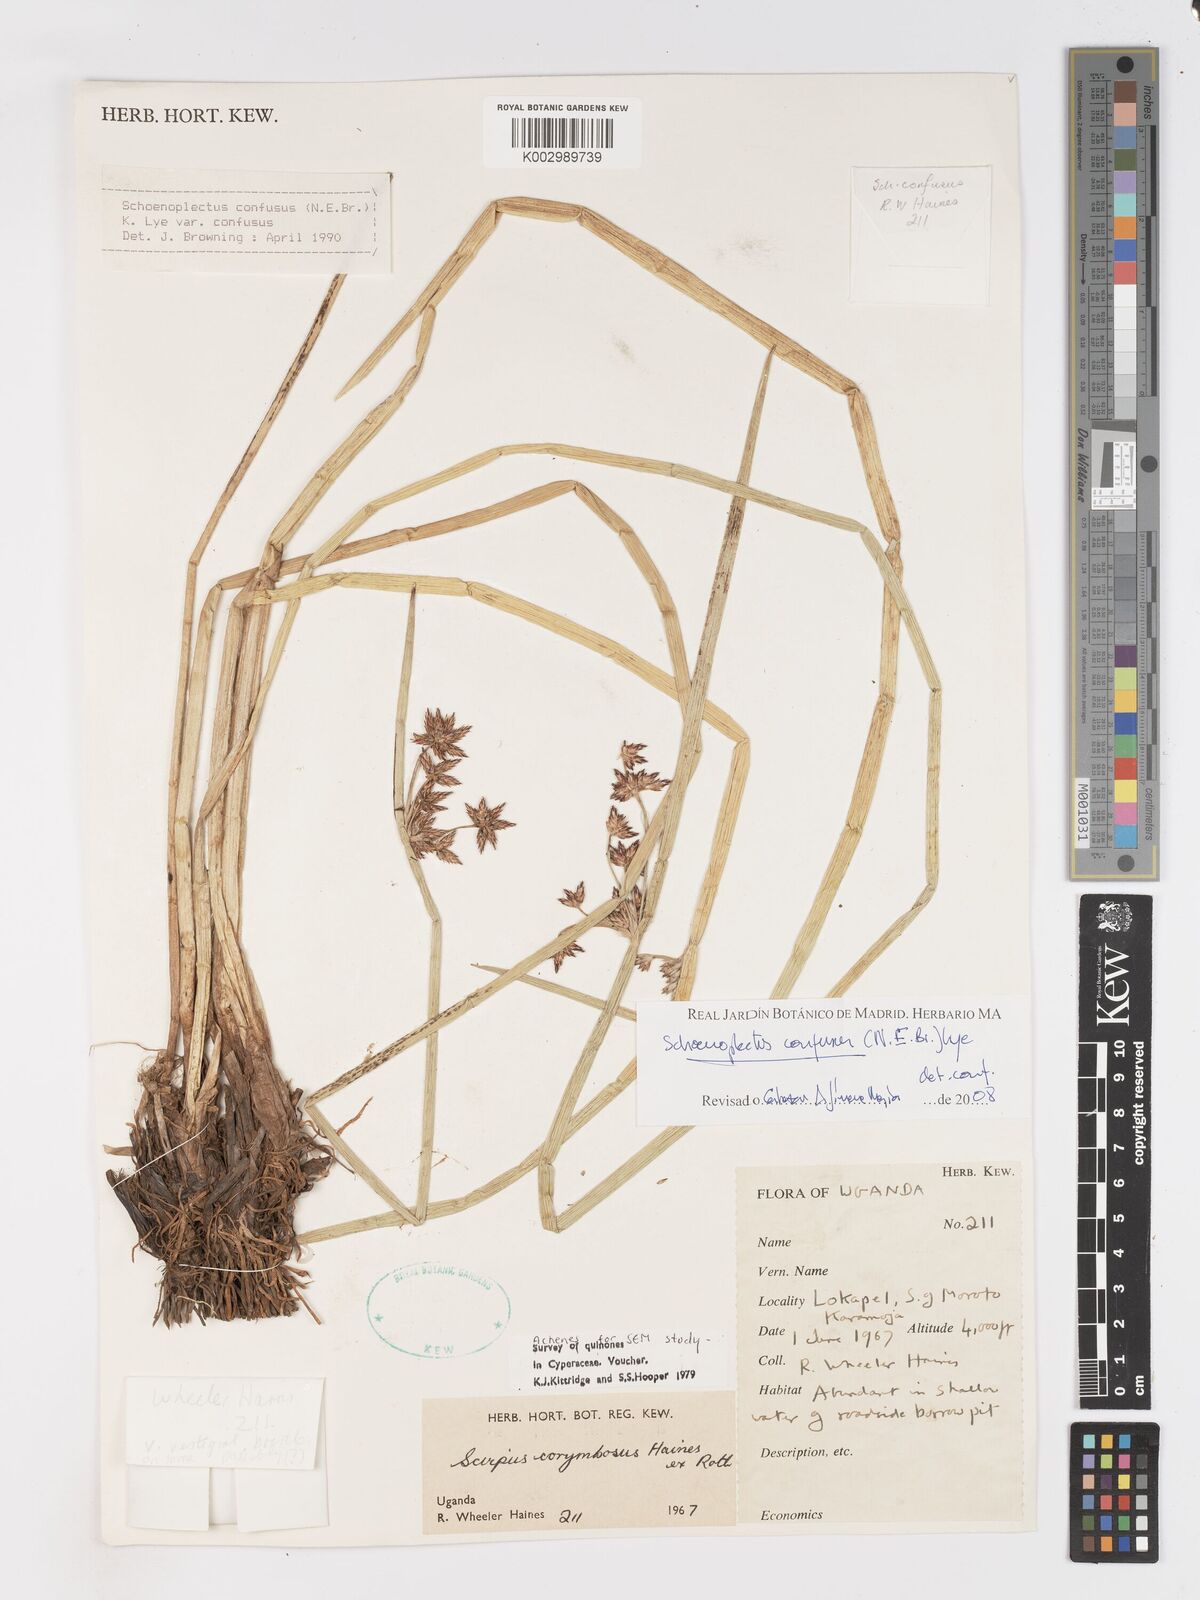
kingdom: Plantae
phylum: Tracheophyta
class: Liliopsida
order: Poales
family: Cyperaceae
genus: Schoenoplectiella
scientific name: Schoenoplectiella confusa
